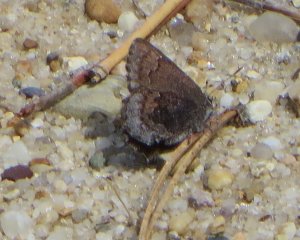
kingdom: Animalia
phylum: Arthropoda
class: Insecta
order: Lepidoptera
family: Lycaenidae
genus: Callophrys
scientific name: Callophrys polios
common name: Hoary Elfin
